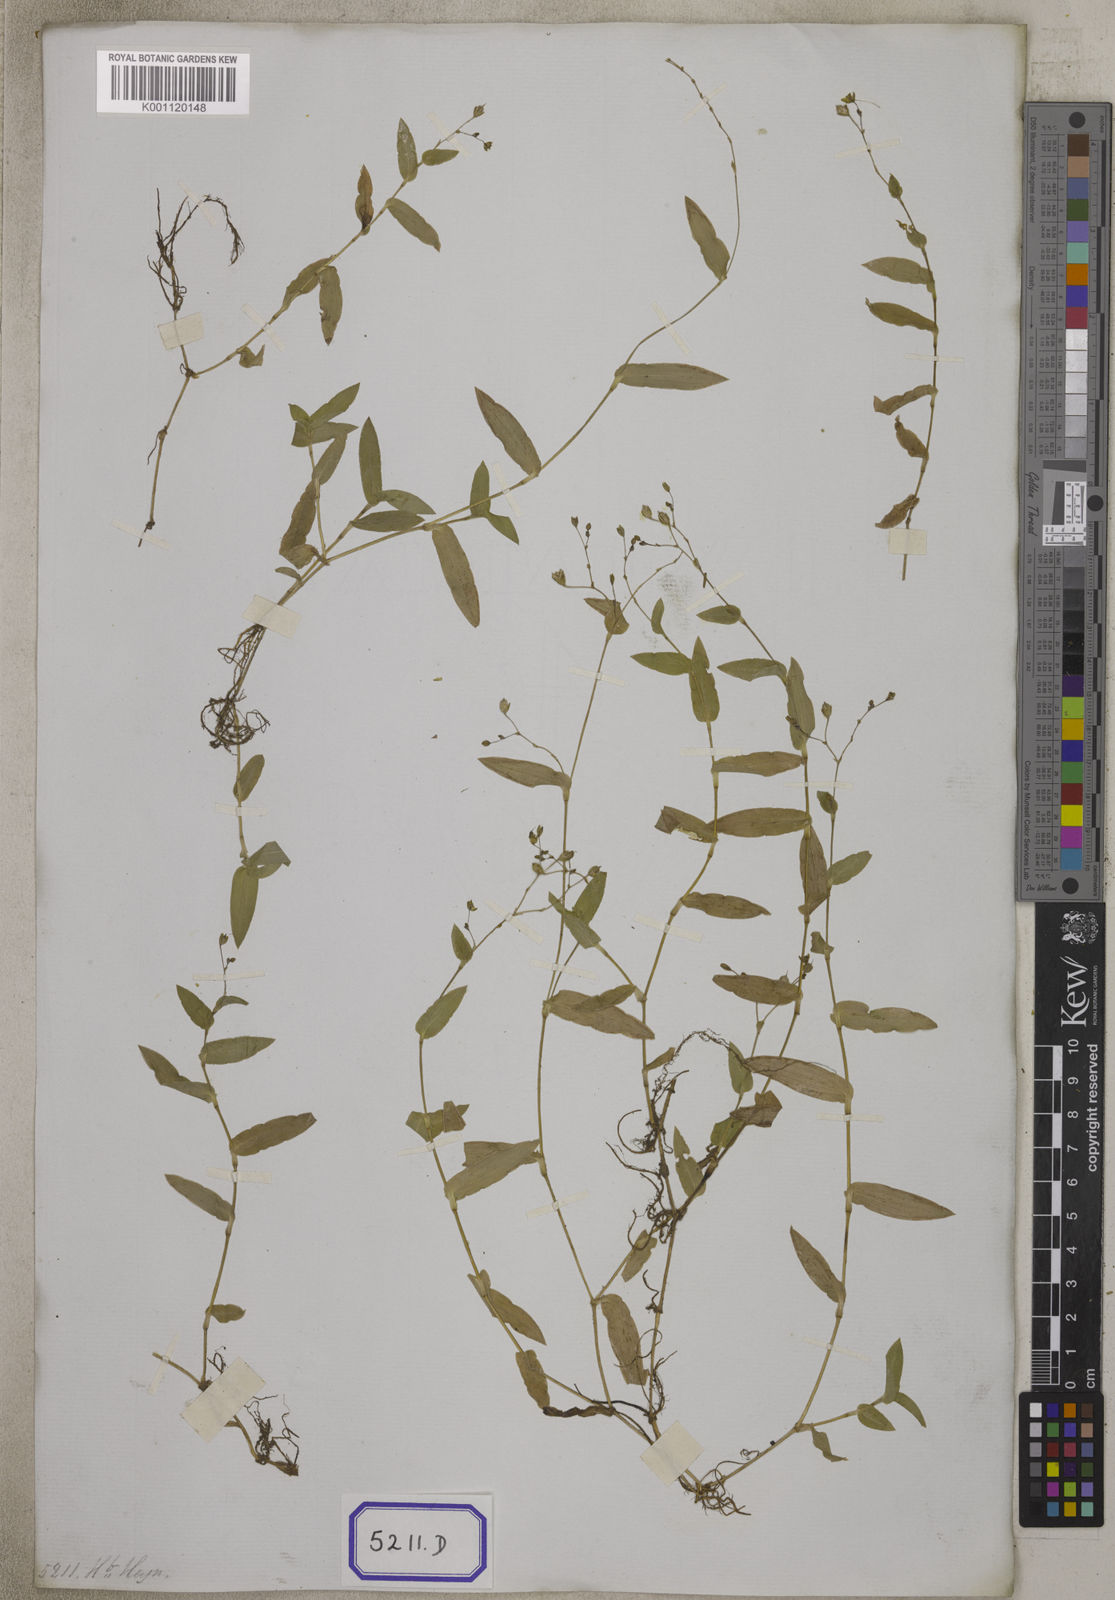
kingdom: Plantae
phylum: Tracheophyta
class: Liliopsida
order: Commelinales
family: Commelinaceae
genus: Aneilema
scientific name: Aneilema
